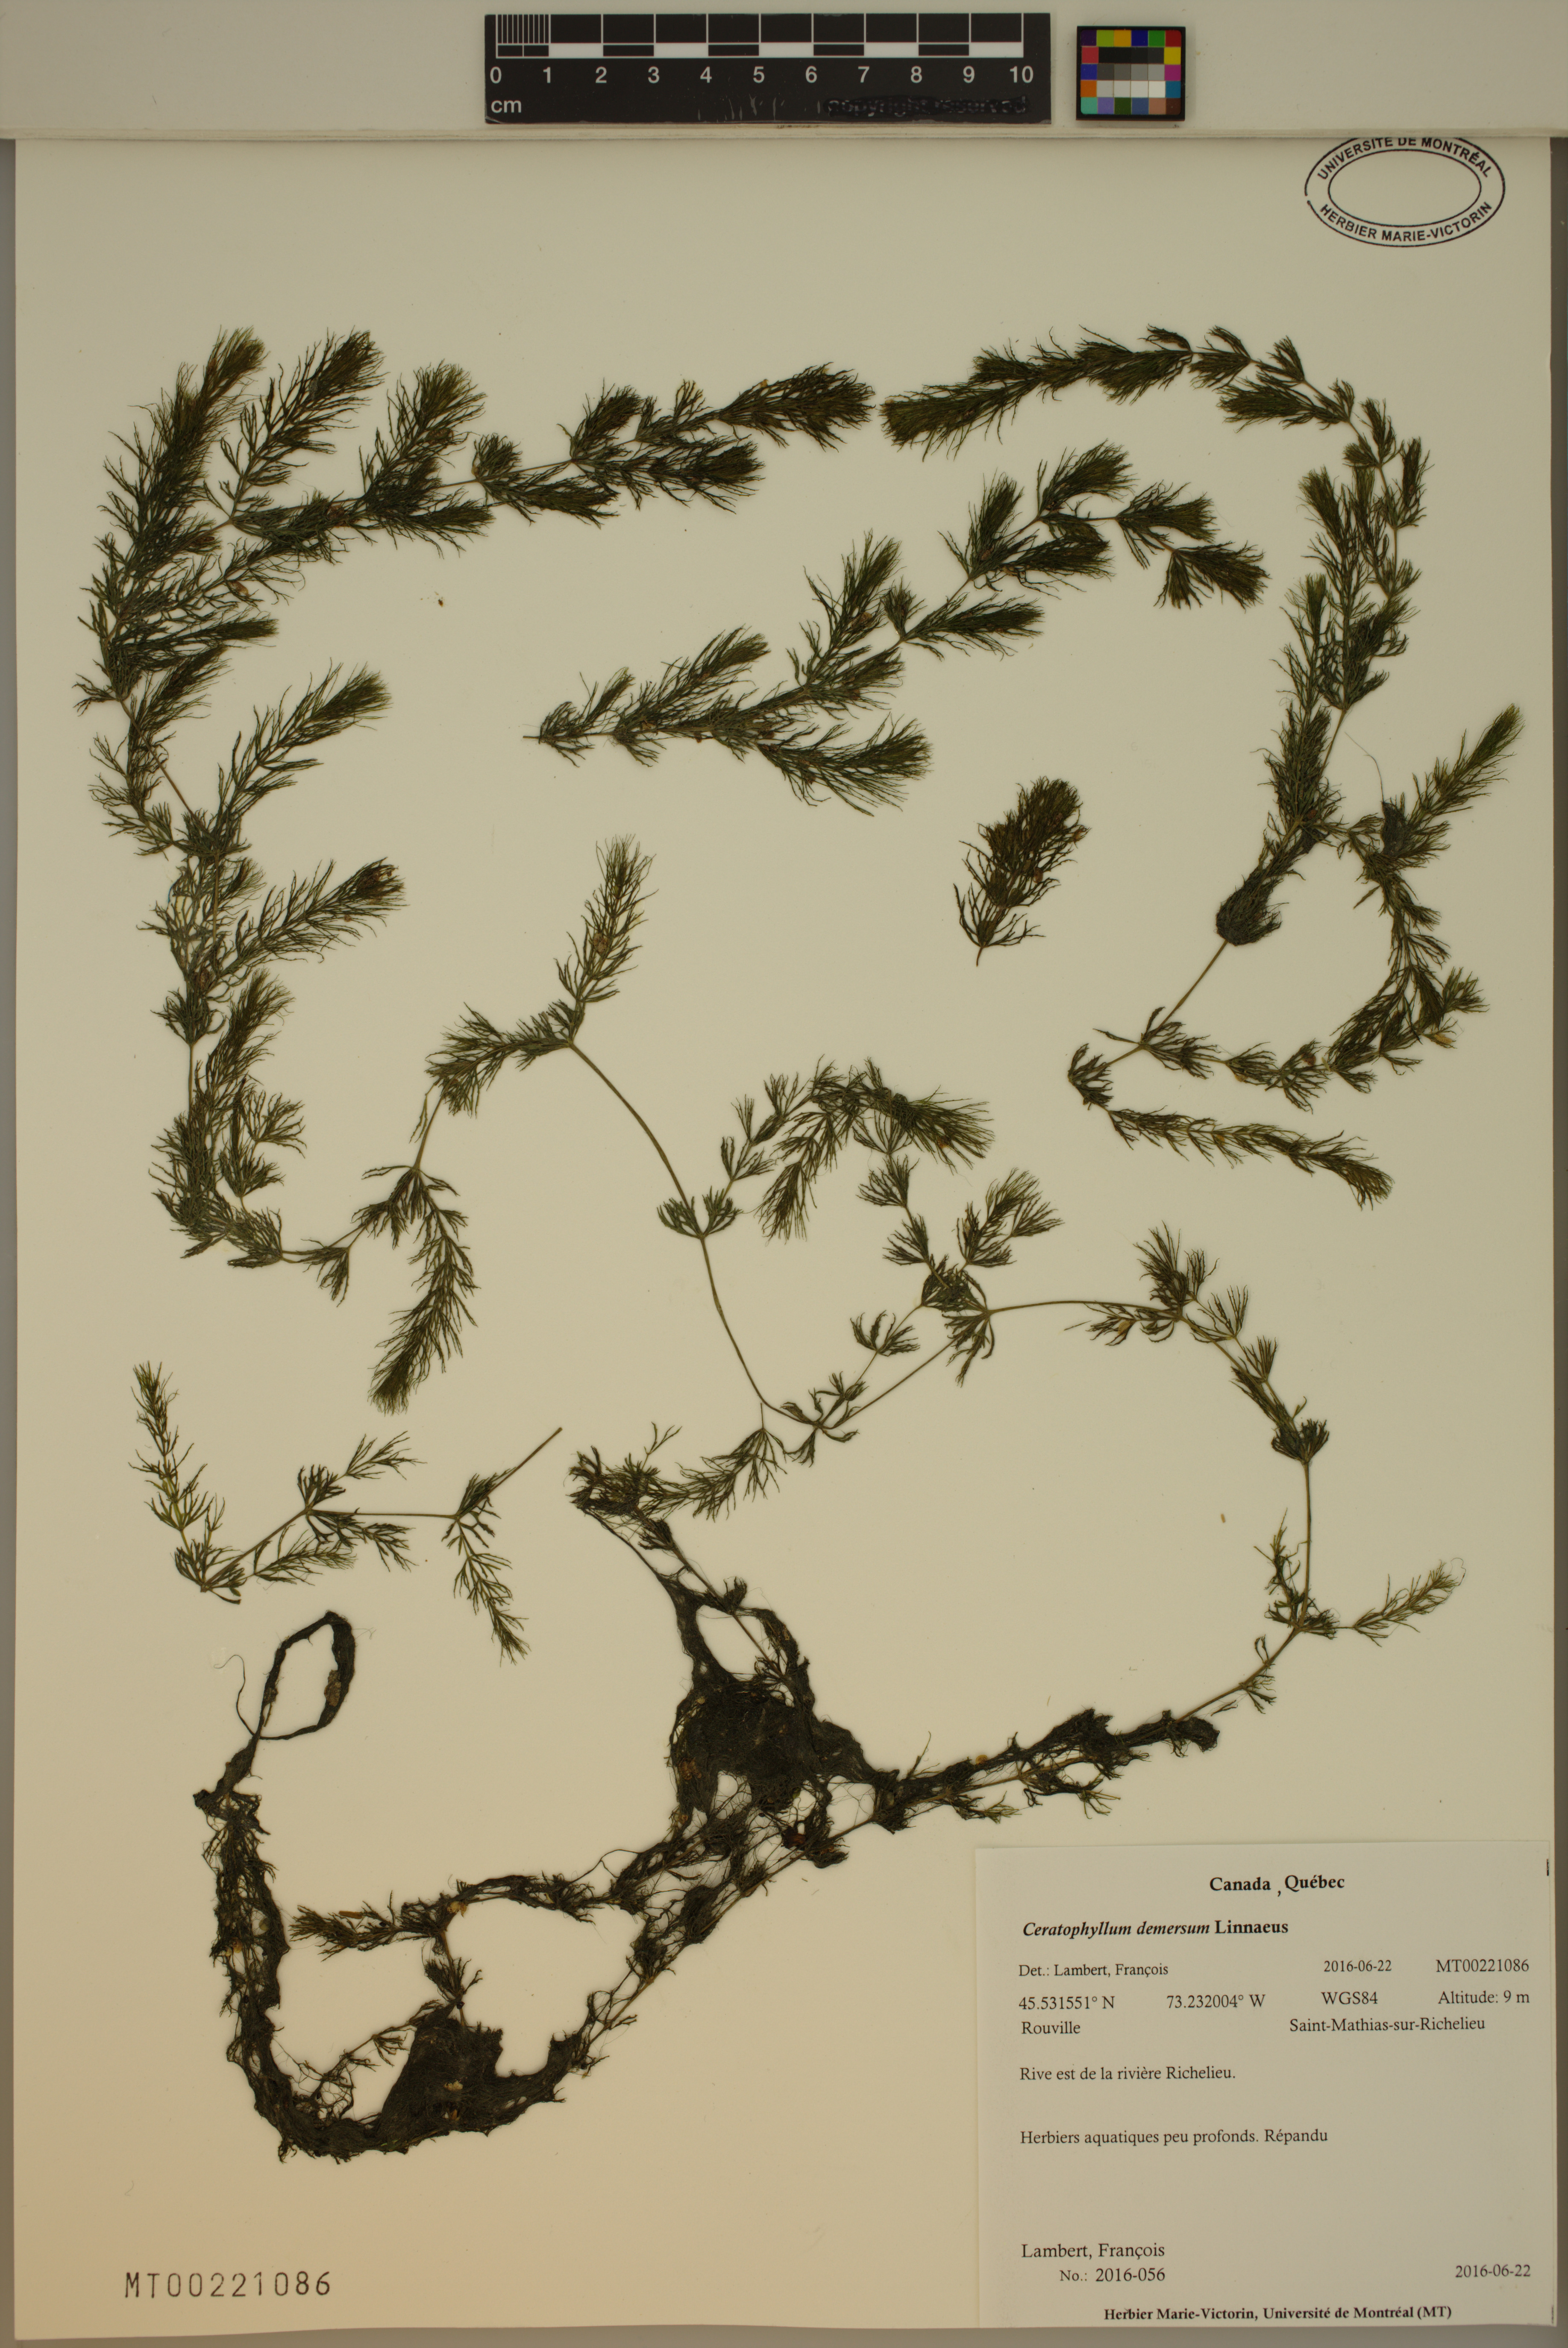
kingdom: Plantae
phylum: Tracheophyta
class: Magnoliopsida
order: Ceratophyllales
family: Ceratophyllaceae
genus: Ceratophyllum
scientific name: Ceratophyllum demersum
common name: Rigid hornwort
